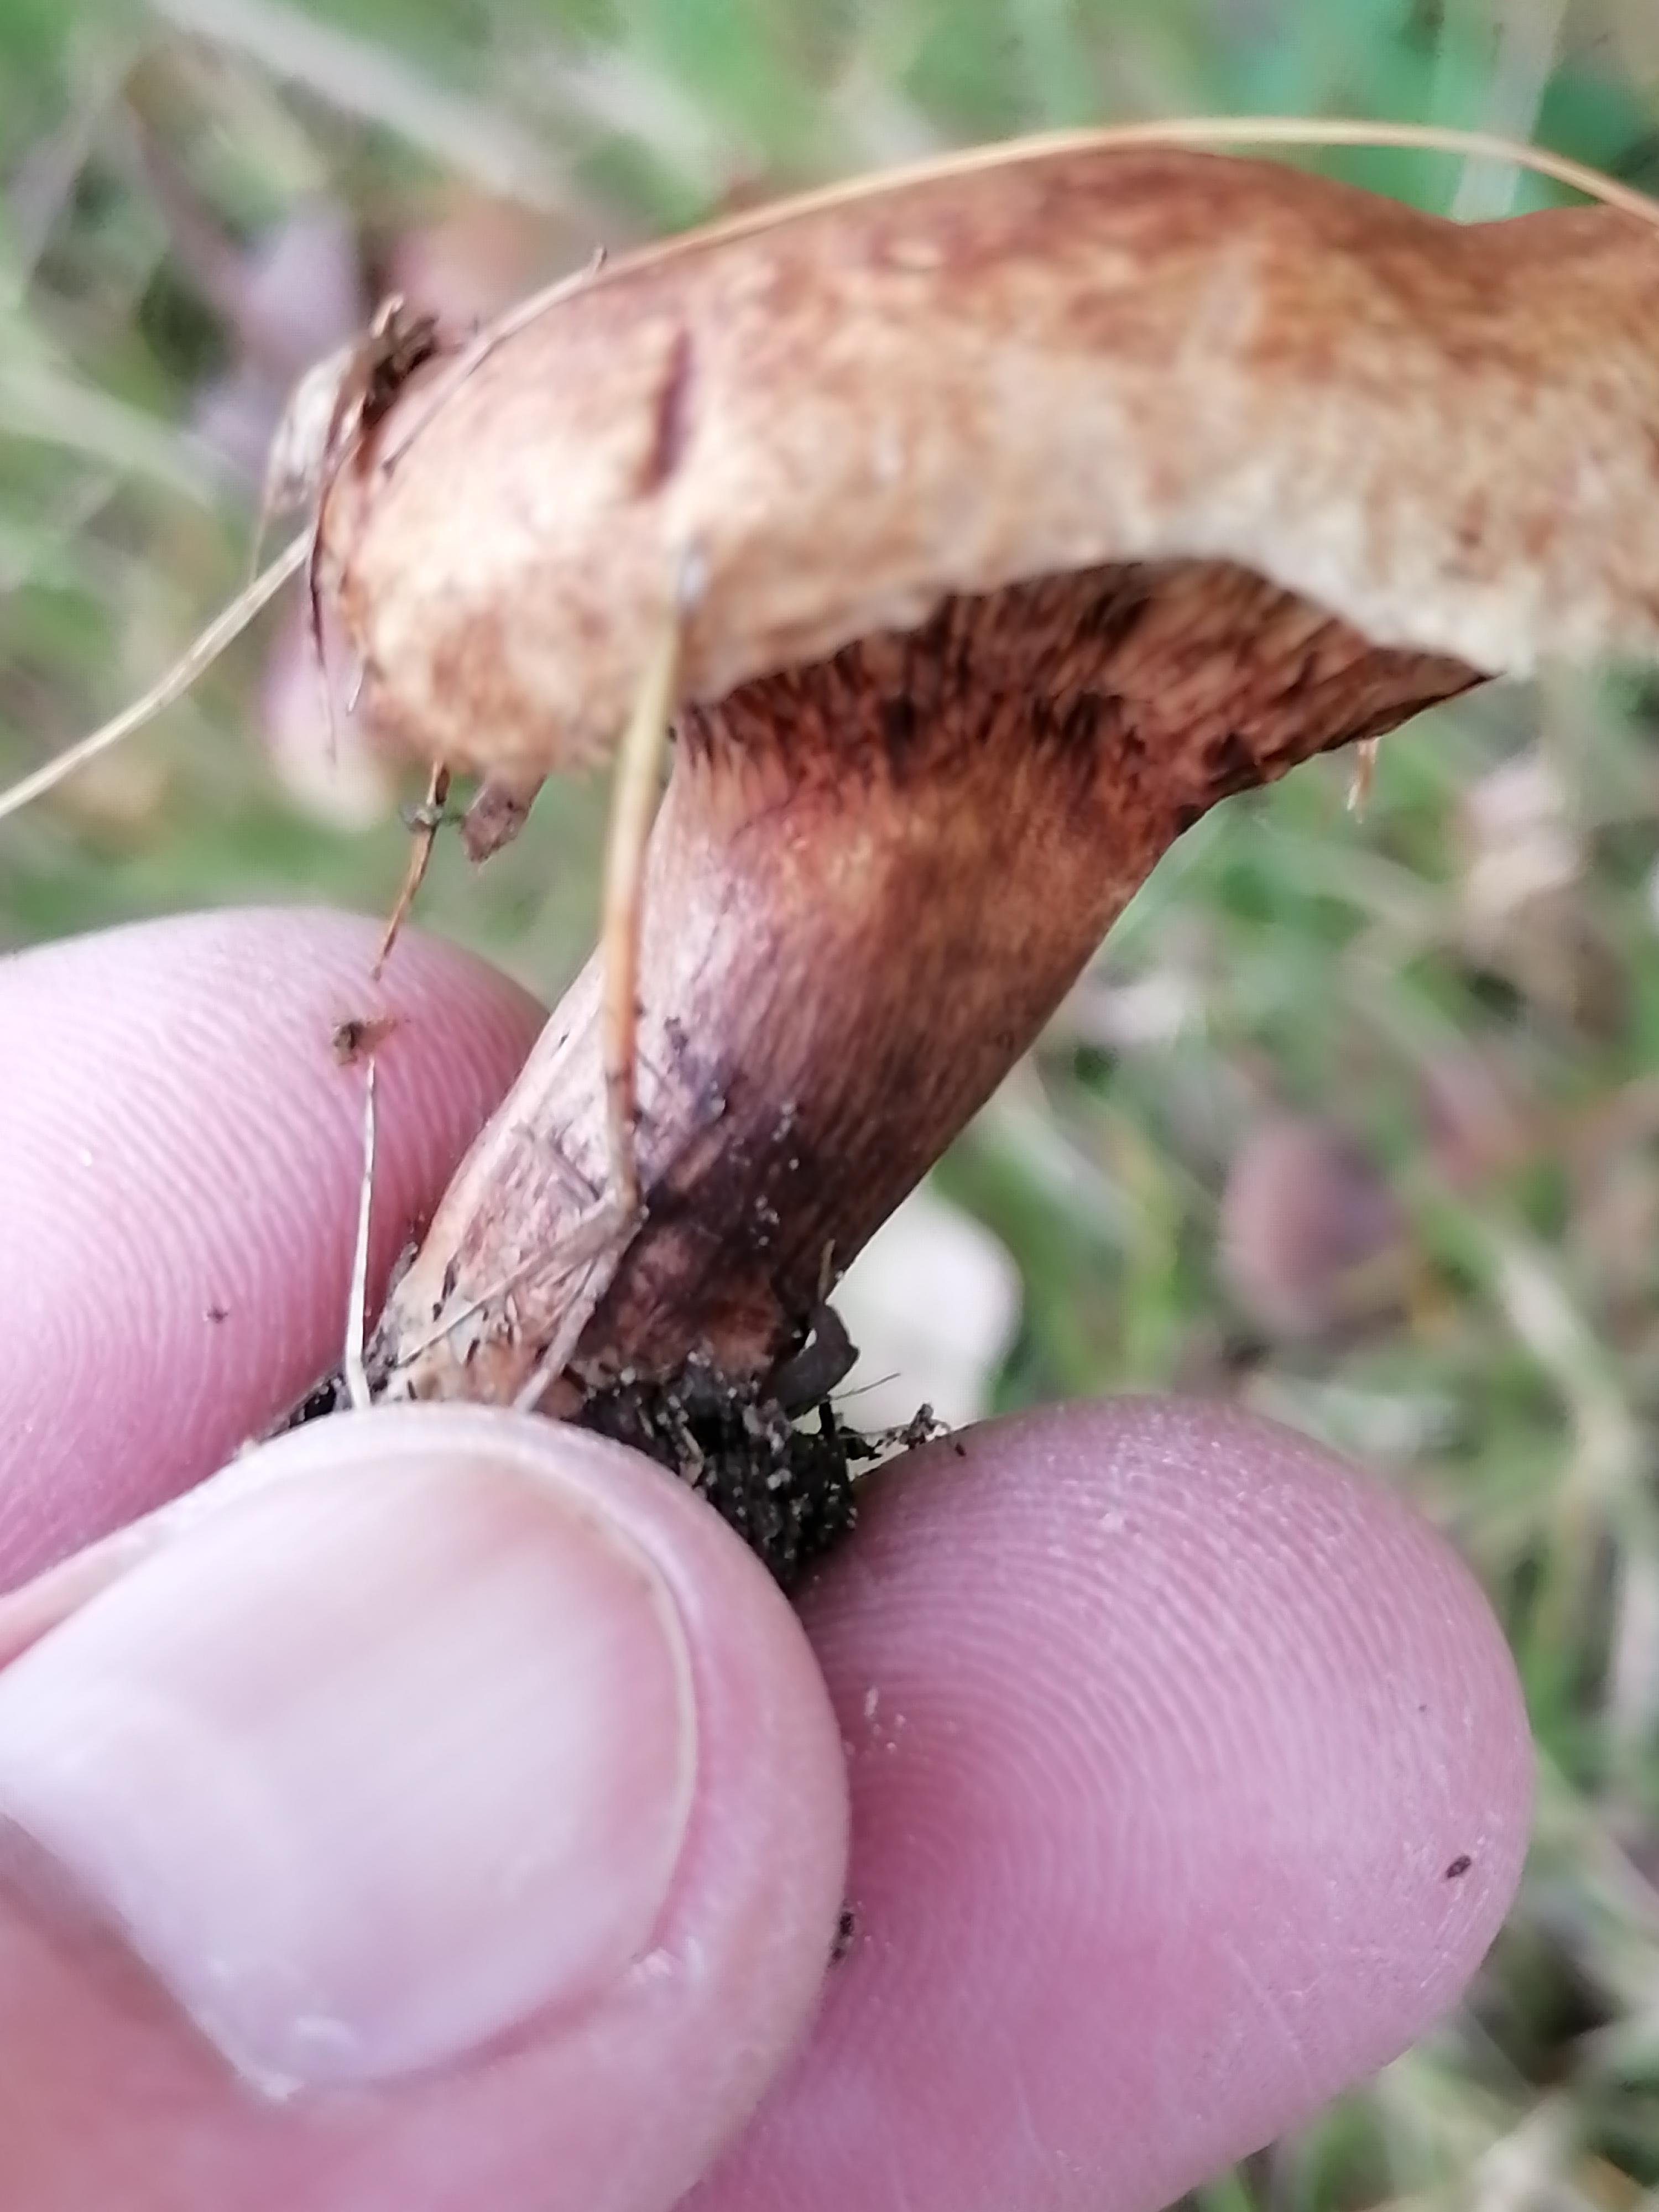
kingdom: Fungi
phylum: Basidiomycota
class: Agaricomycetes
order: Boletales
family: Paxillaceae
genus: Paxillus
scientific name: Paxillus
